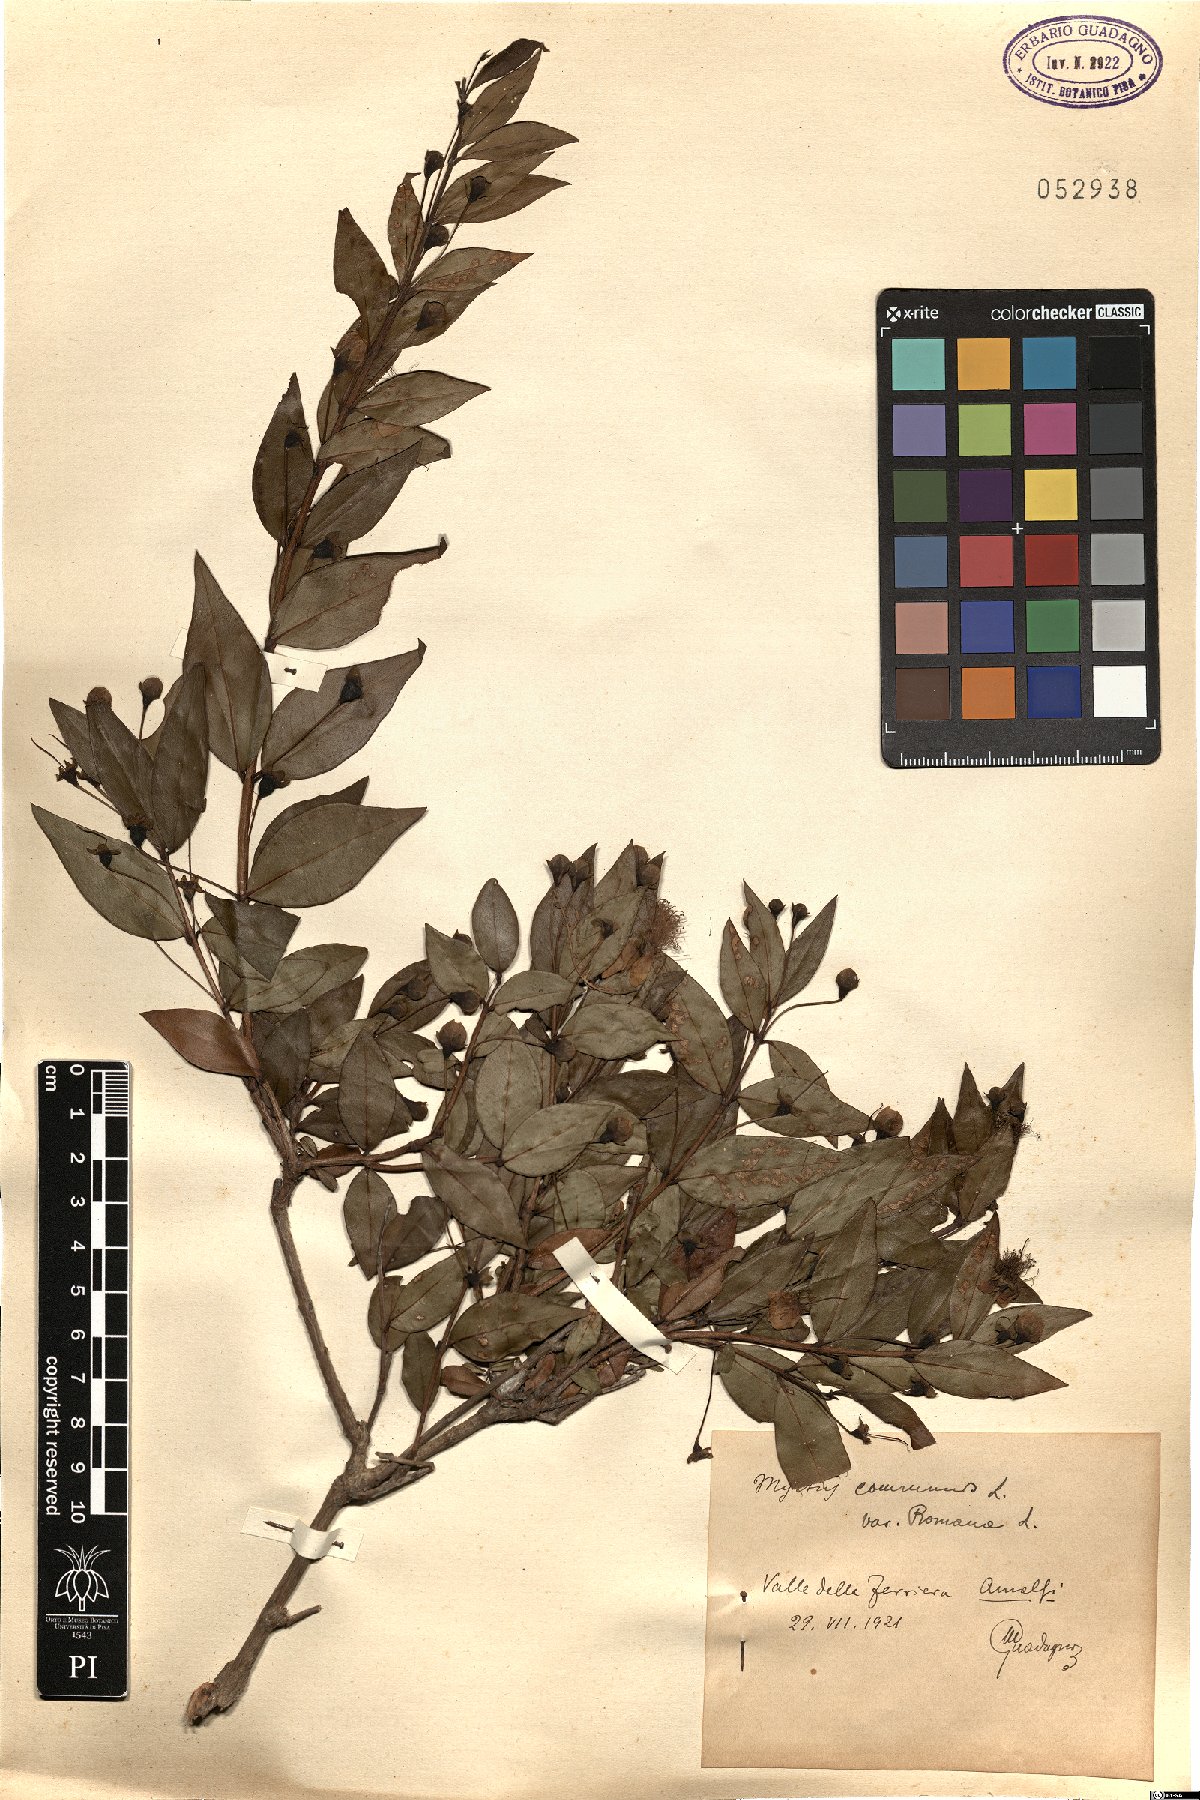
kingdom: Plantae
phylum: Tracheophyta
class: Magnoliopsida
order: Myrtales
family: Myrtaceae
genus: Myrtus
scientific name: Myrtus communis
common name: Myrtle
